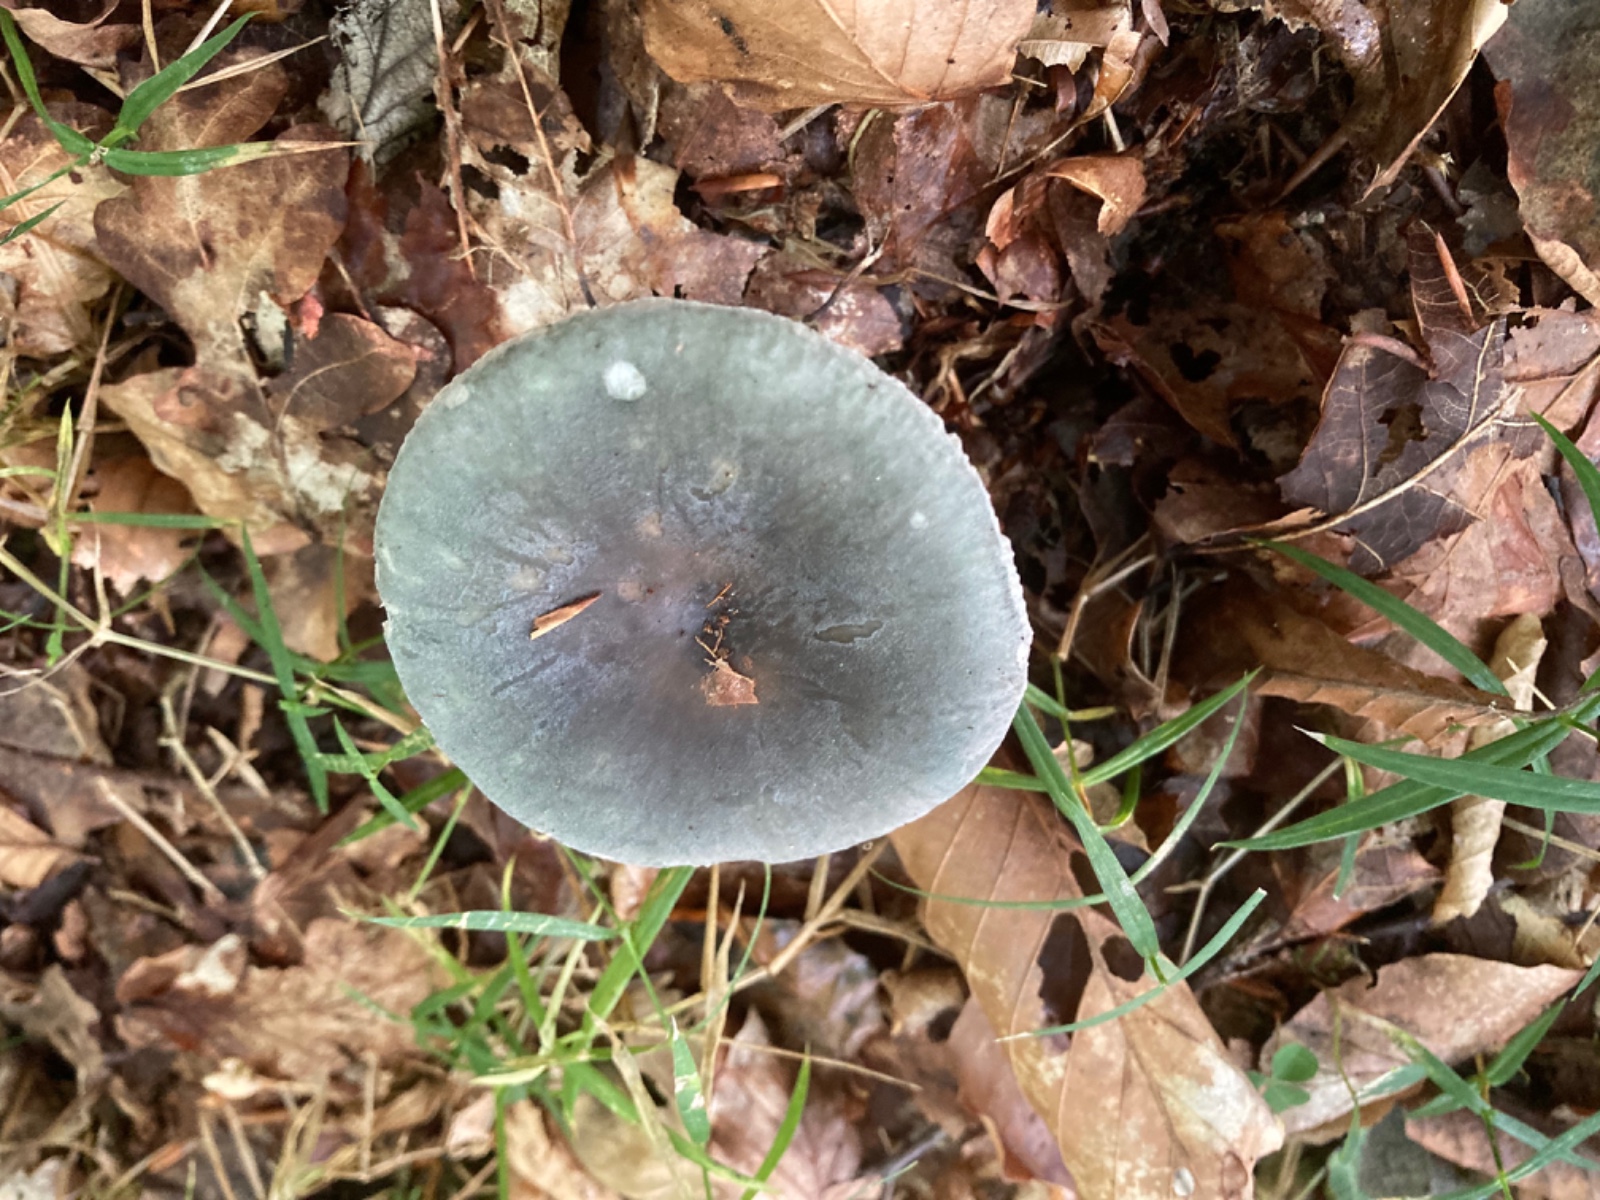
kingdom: Fungi
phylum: Basidiomycota
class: Agaricomycetes
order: Russulales
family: Russulaceae
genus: Russula
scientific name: Russula parazurea
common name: blågrå skørhat
